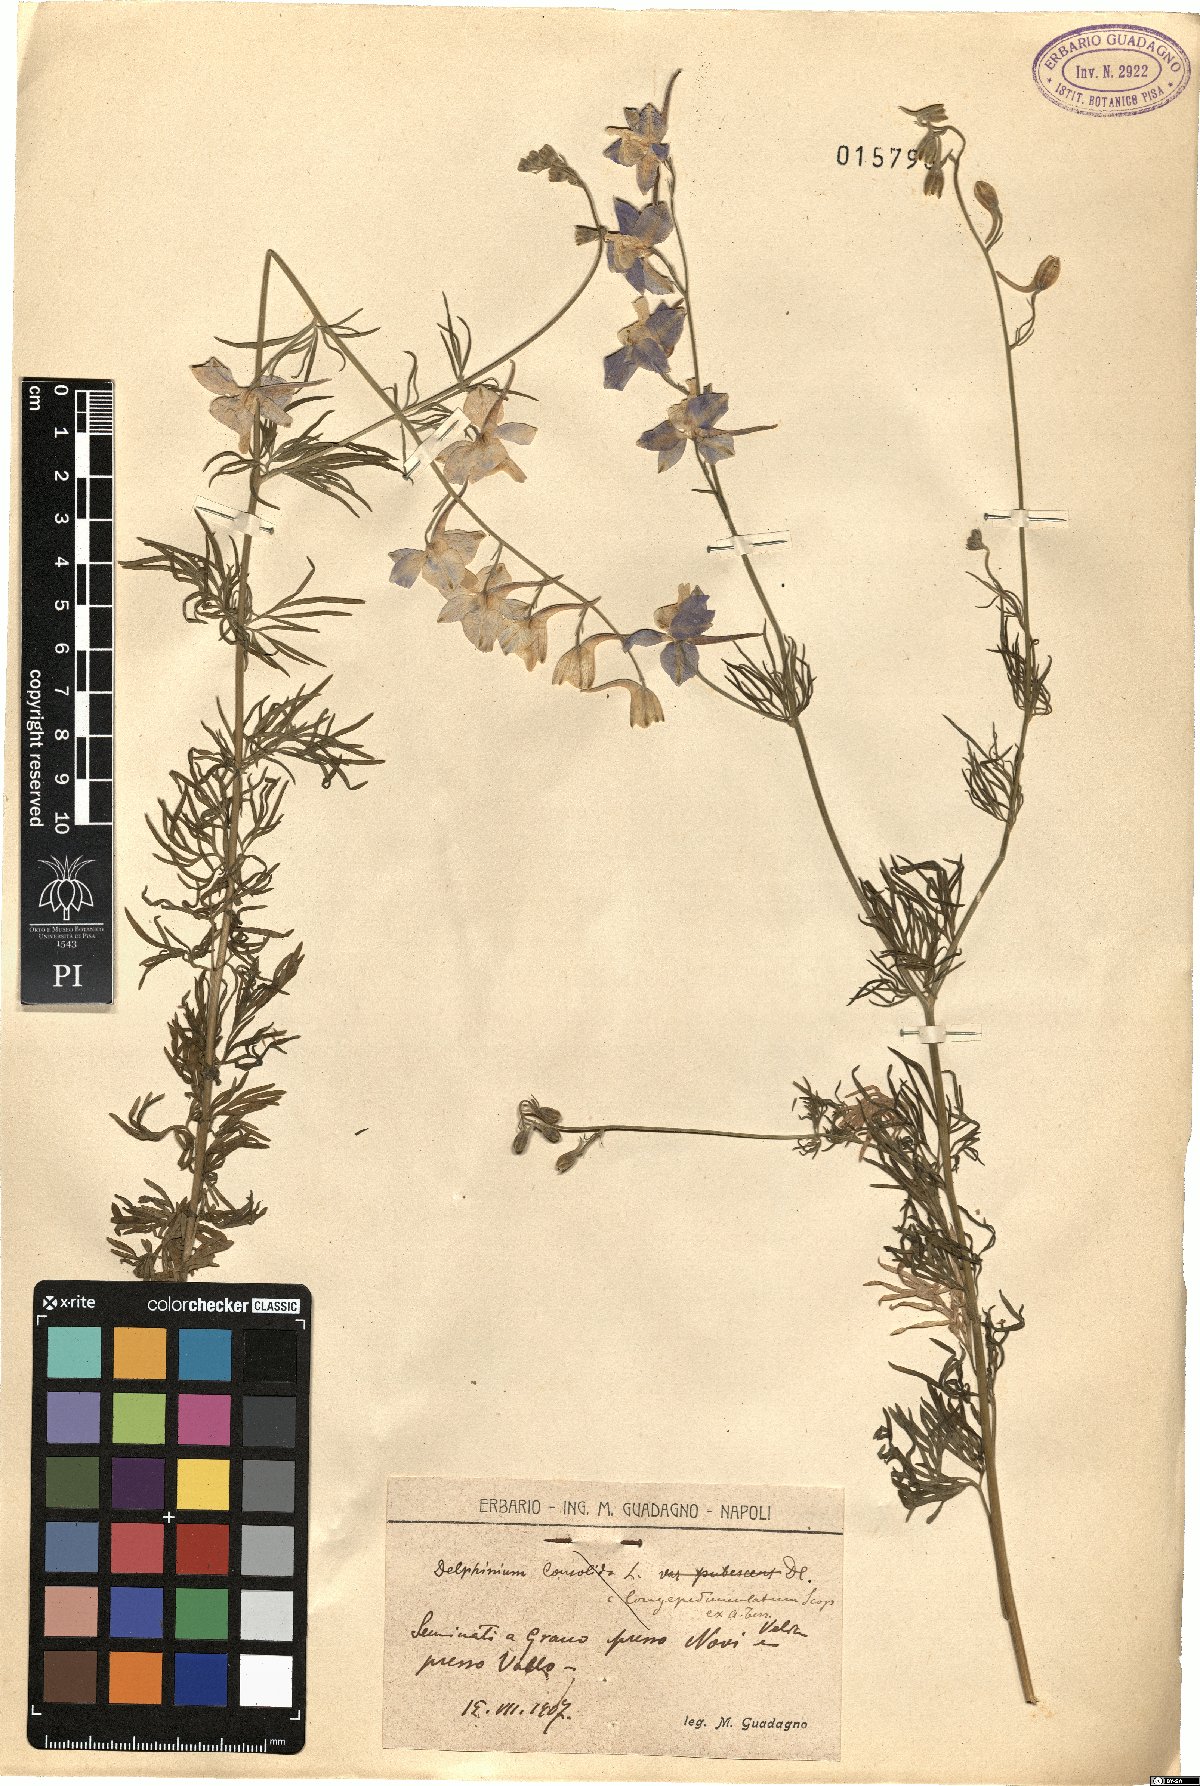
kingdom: Plantae
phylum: Tracheophyta
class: Magnoliopsida
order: Ranunculales
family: Ranunculaceae
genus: Delphinium
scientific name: Delphinium consolida
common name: Branching larkspur
